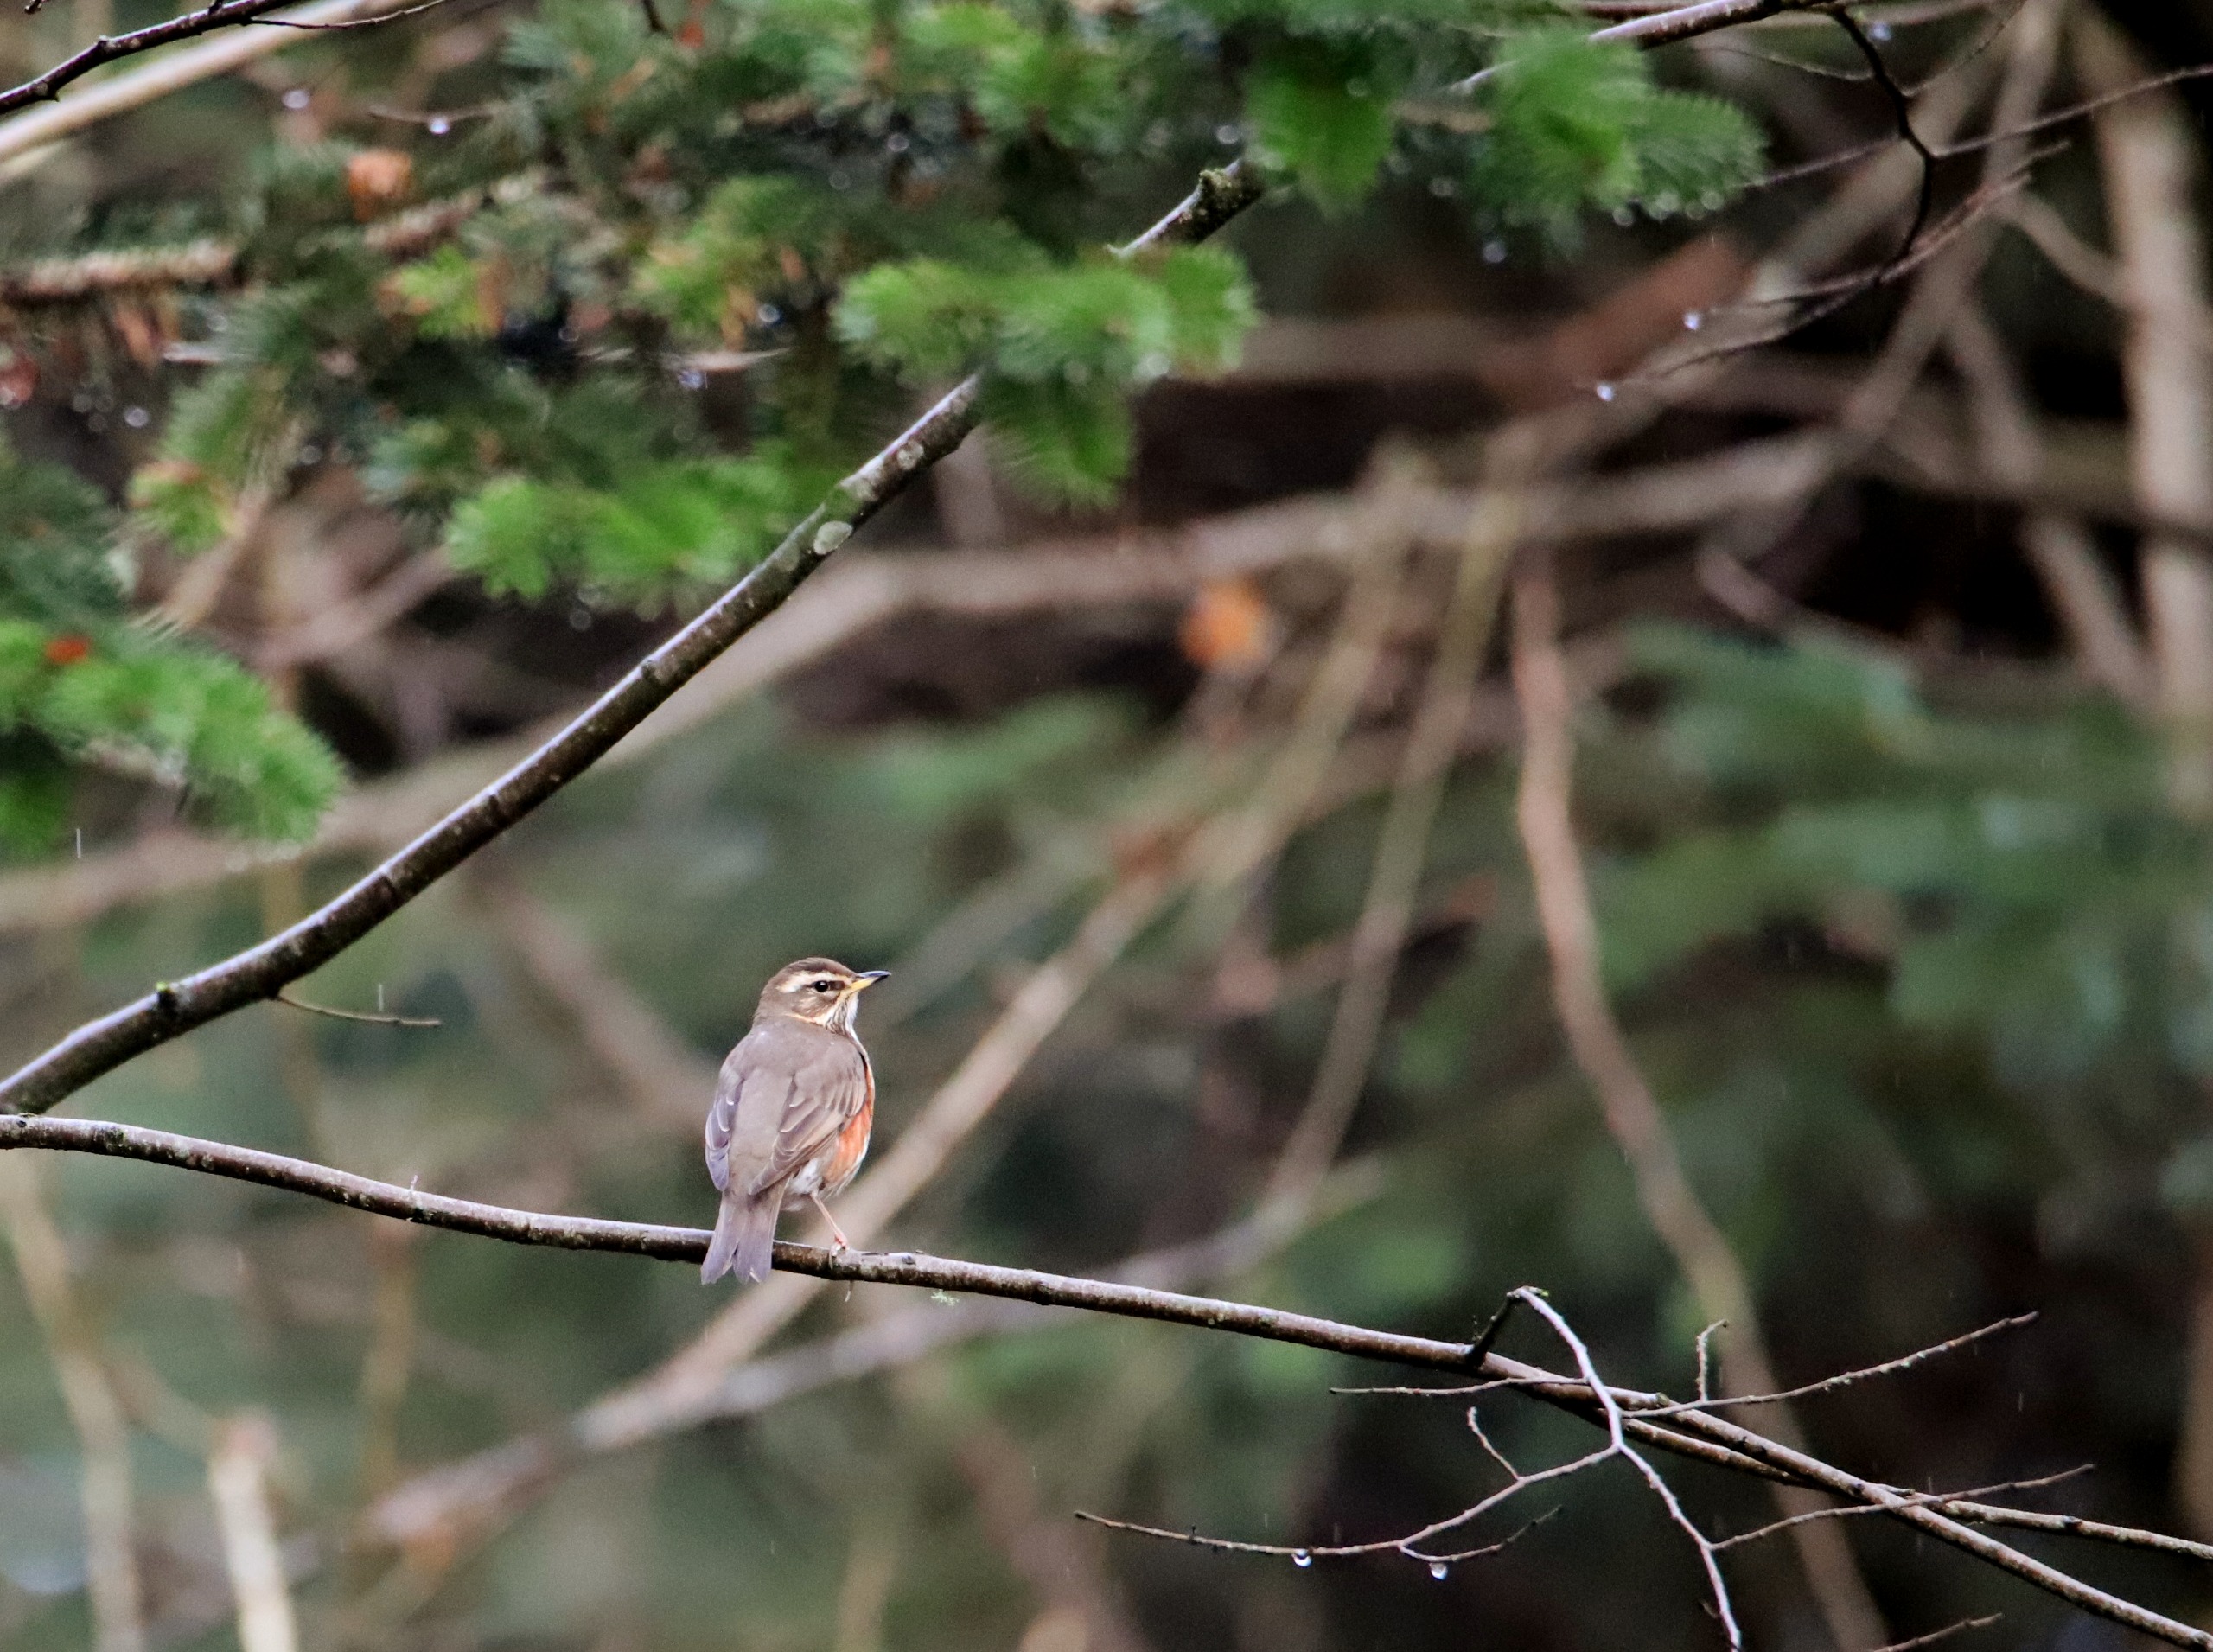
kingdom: Animalia
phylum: Chordata
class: Aves
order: Passeriformes
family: Turdidae
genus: Turdus
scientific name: Turdus iliacus
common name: Vindrossel
